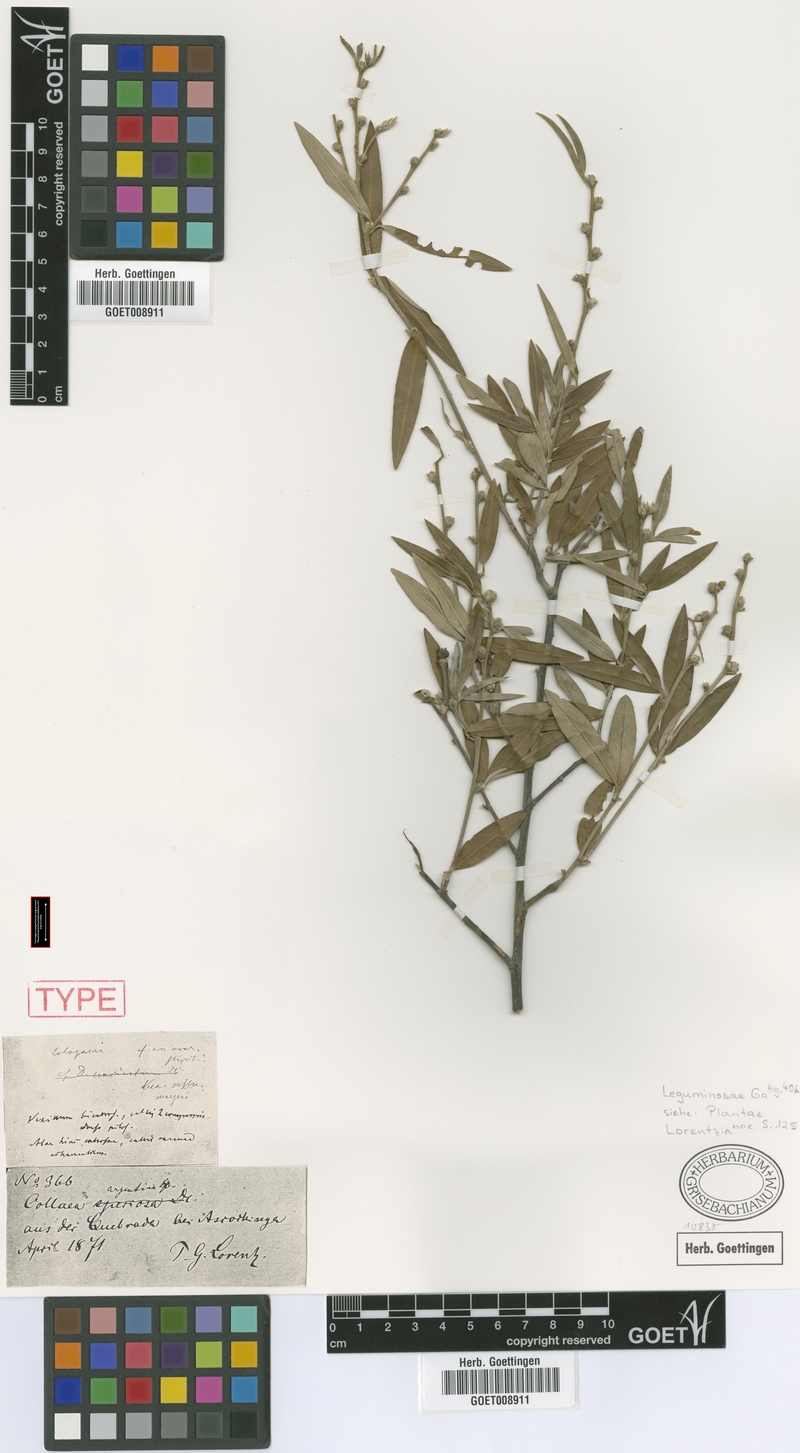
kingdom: Plantae
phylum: Tracheophyta
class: Magnoliopsida
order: Fabales
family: Fabaceae
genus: Nanogalactia
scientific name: Nanogalactia heterophylla
